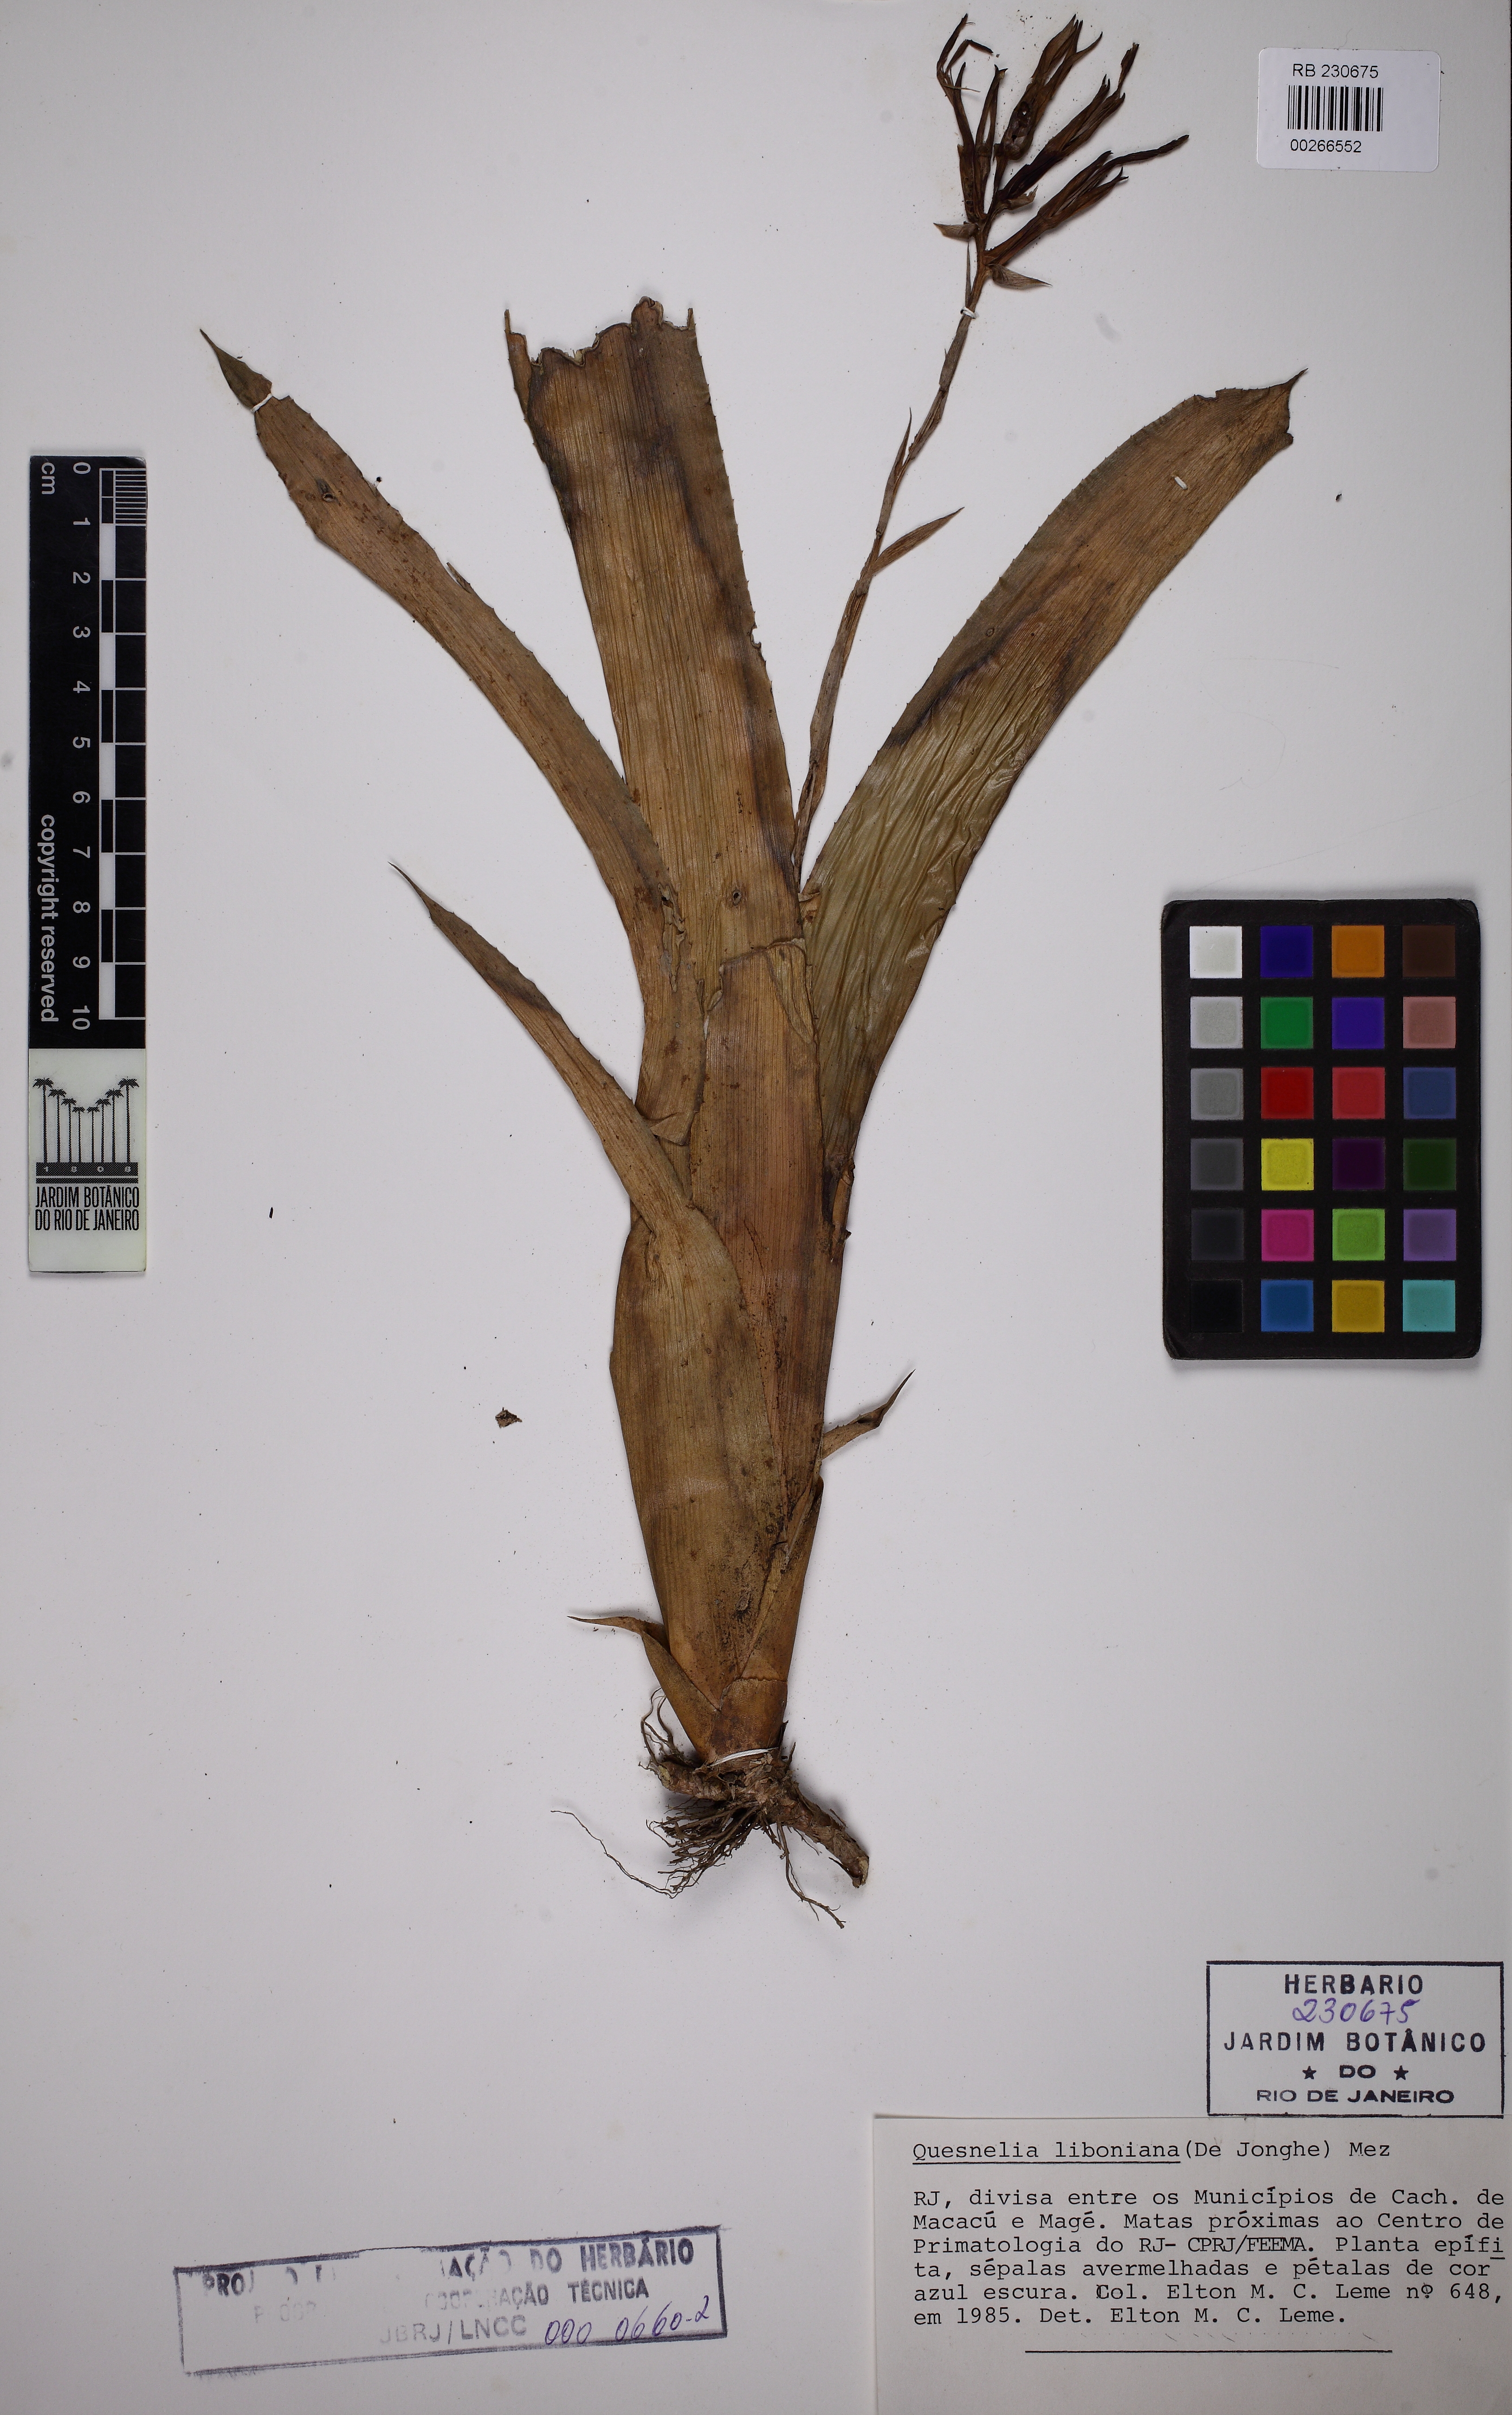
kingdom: Plantae
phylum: Tracheophyta
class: Liliopsida
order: Poales
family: Bromeliaceae
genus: Quesnelia
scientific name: Quesnelia liboniana
